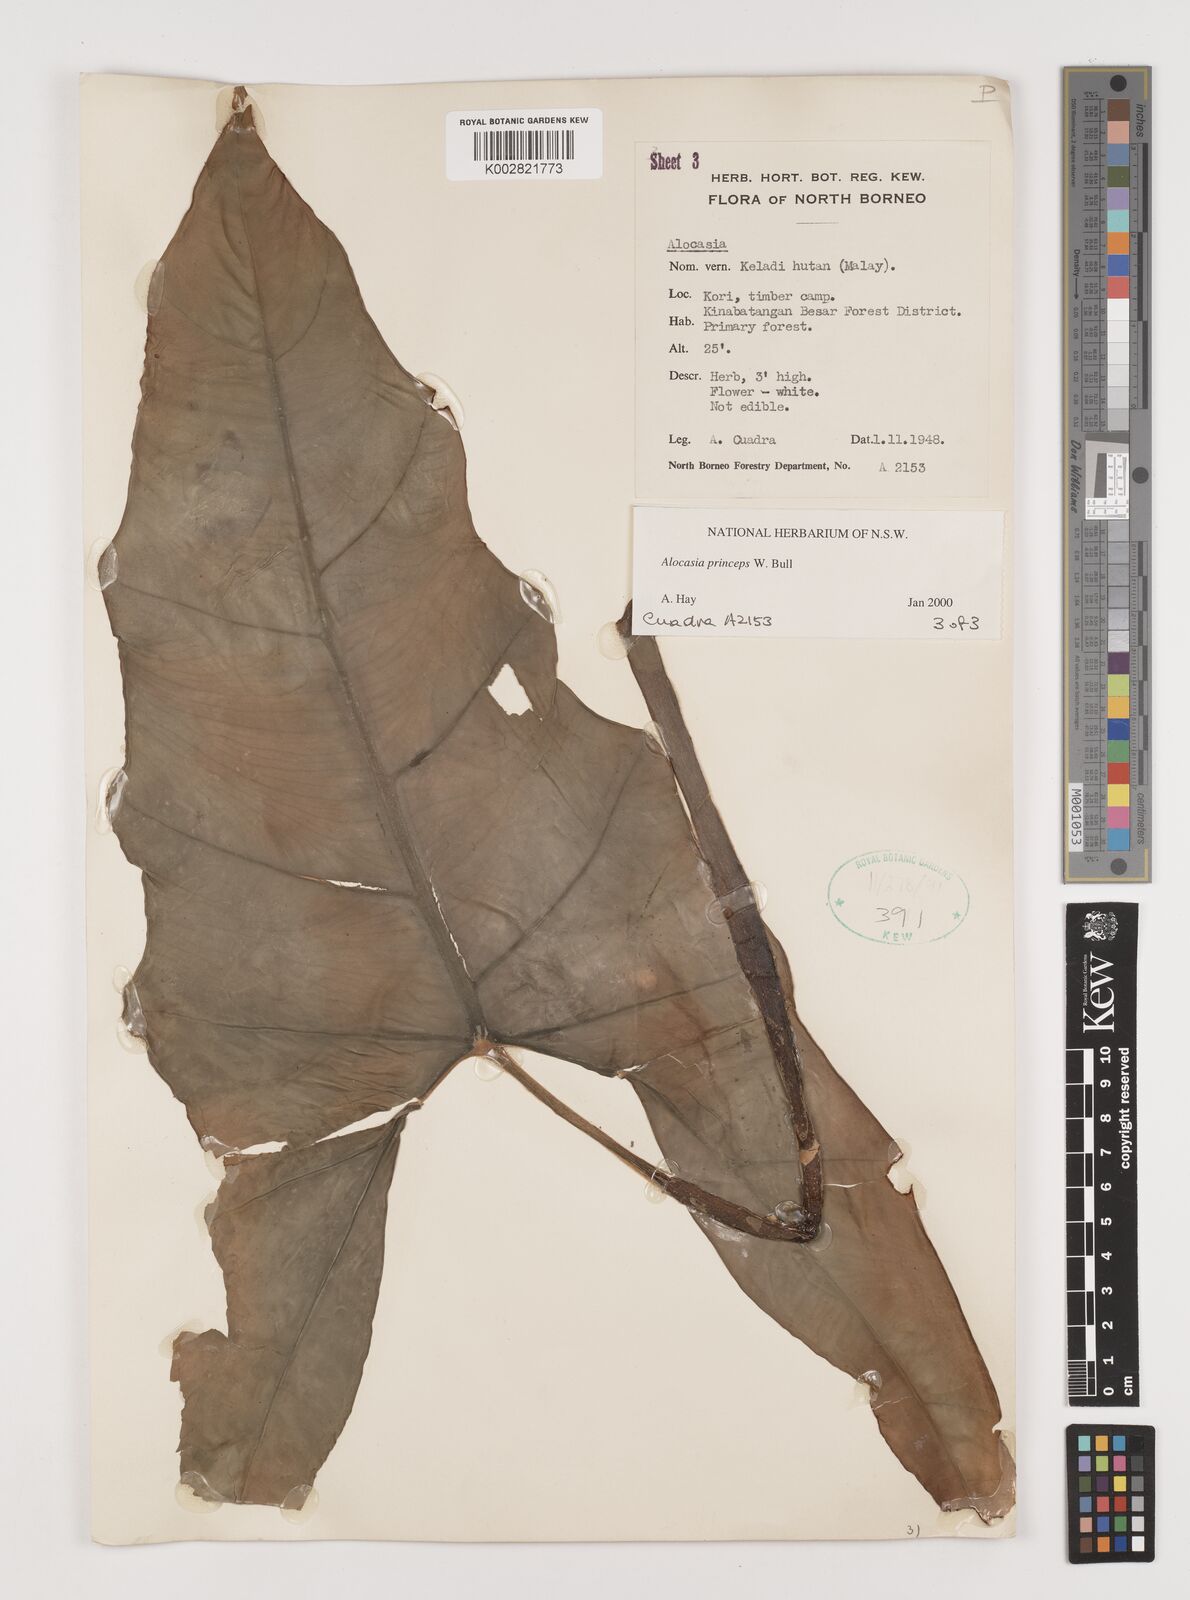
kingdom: Plantae
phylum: Tracheophyta
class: Liliopsida
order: Alismatales
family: Araceae
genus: Alocasia
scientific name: Alocasia princeps
